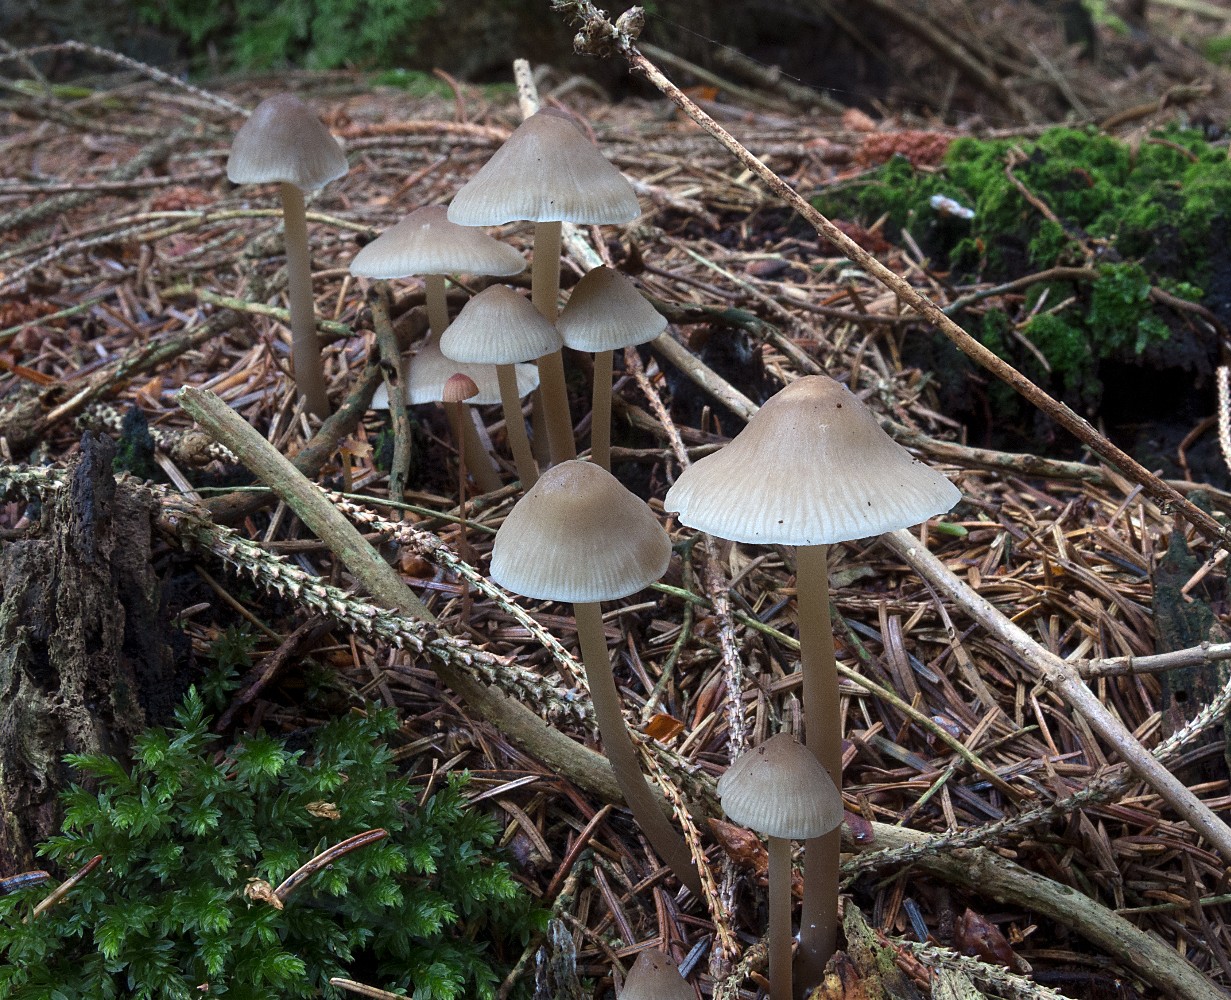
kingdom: Fungi
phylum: Basidiomycota
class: Agaricomycetes
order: Agaricales
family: Mycenaceae
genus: Mycena
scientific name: Mycena galericulata
